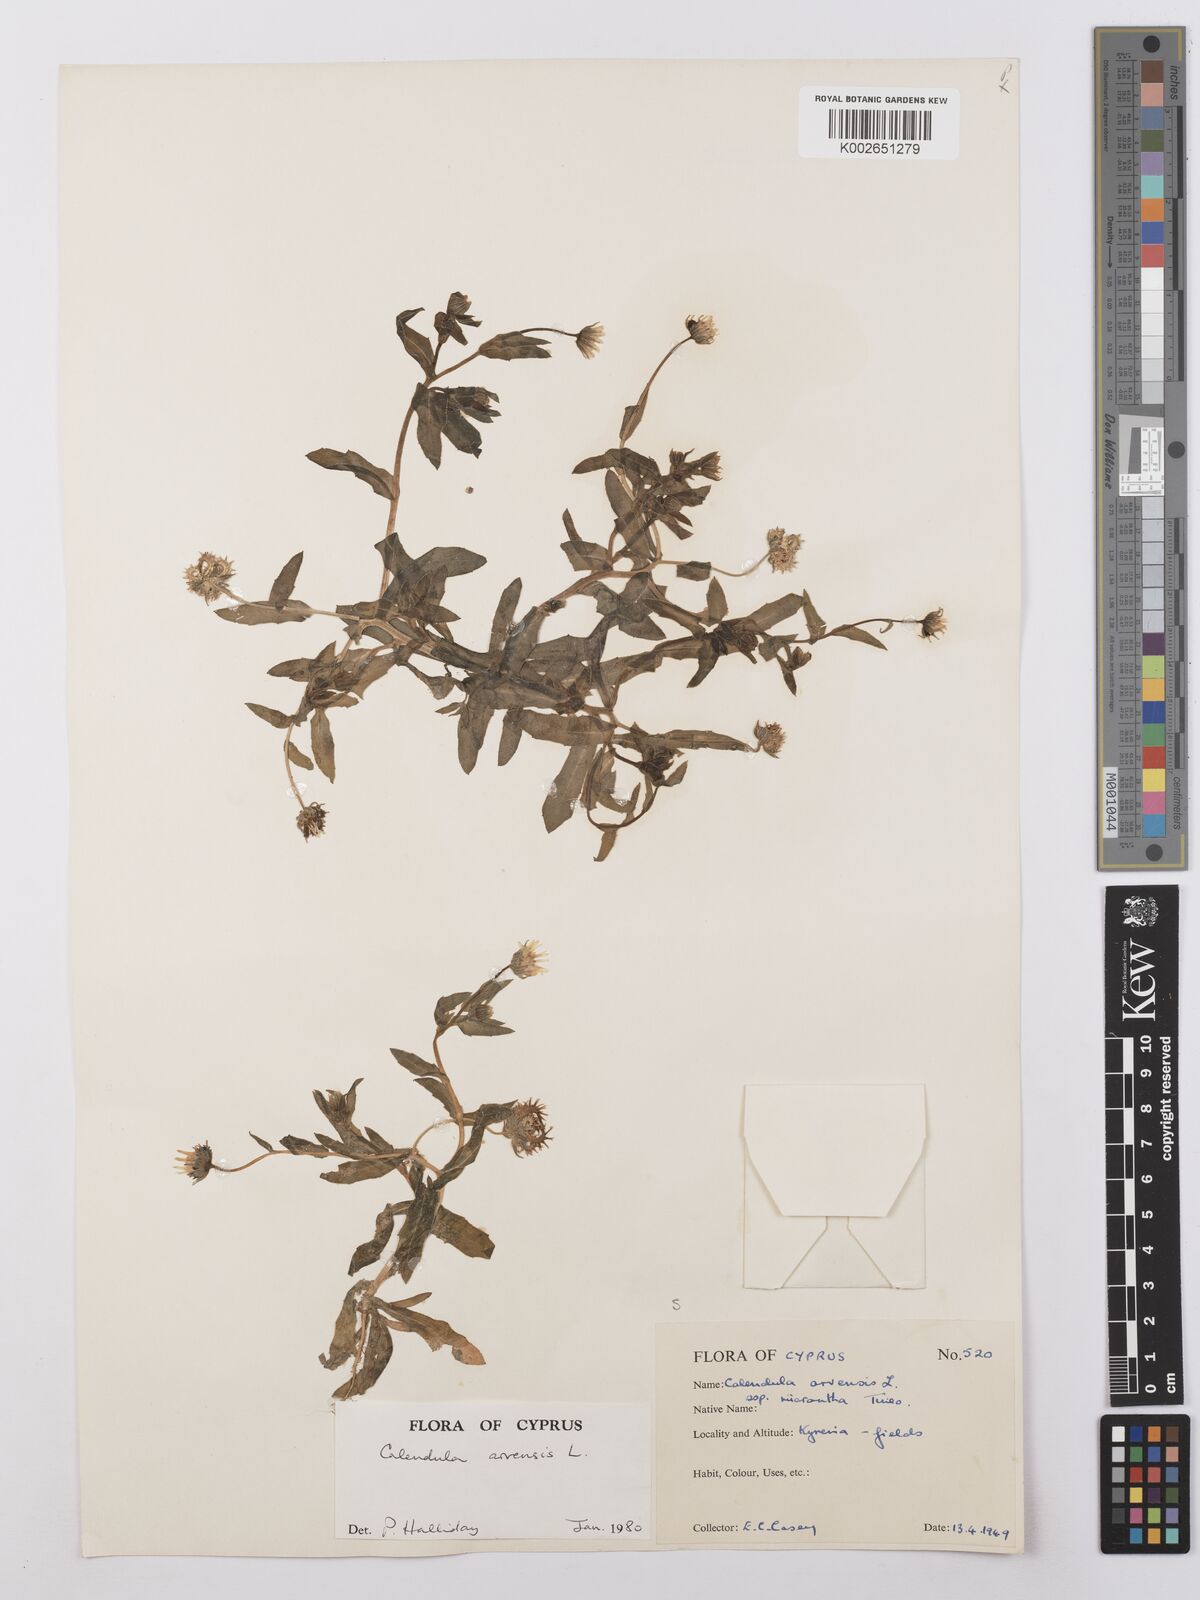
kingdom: Plantae
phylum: Tracheophyta
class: Magnoliopsida
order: Asterales
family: Asteraceae
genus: Calendula
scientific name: Calendula arvensis
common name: Field marigold
